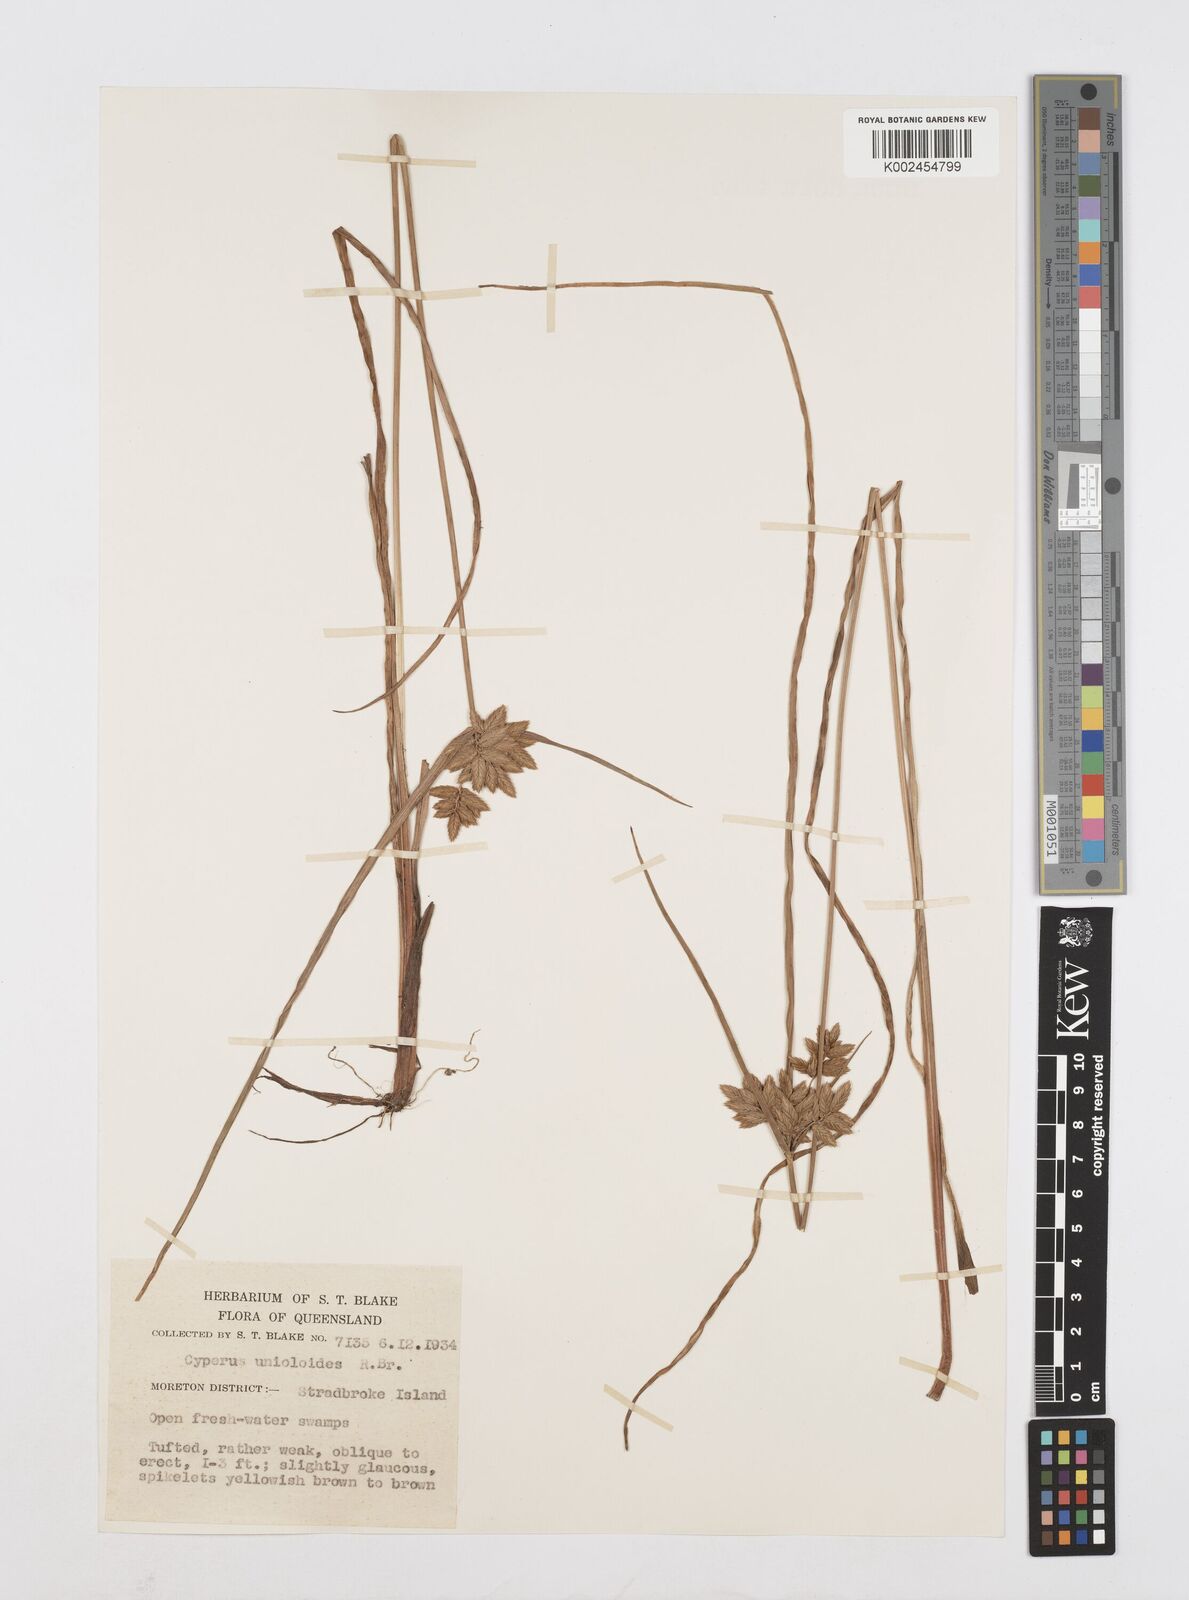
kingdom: Plantae
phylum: Tracheophyta
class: Liliopsida
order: Poales
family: Cyperaceae
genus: Cyperus
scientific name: Cyperus unioloides
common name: Uniola flatsedge
